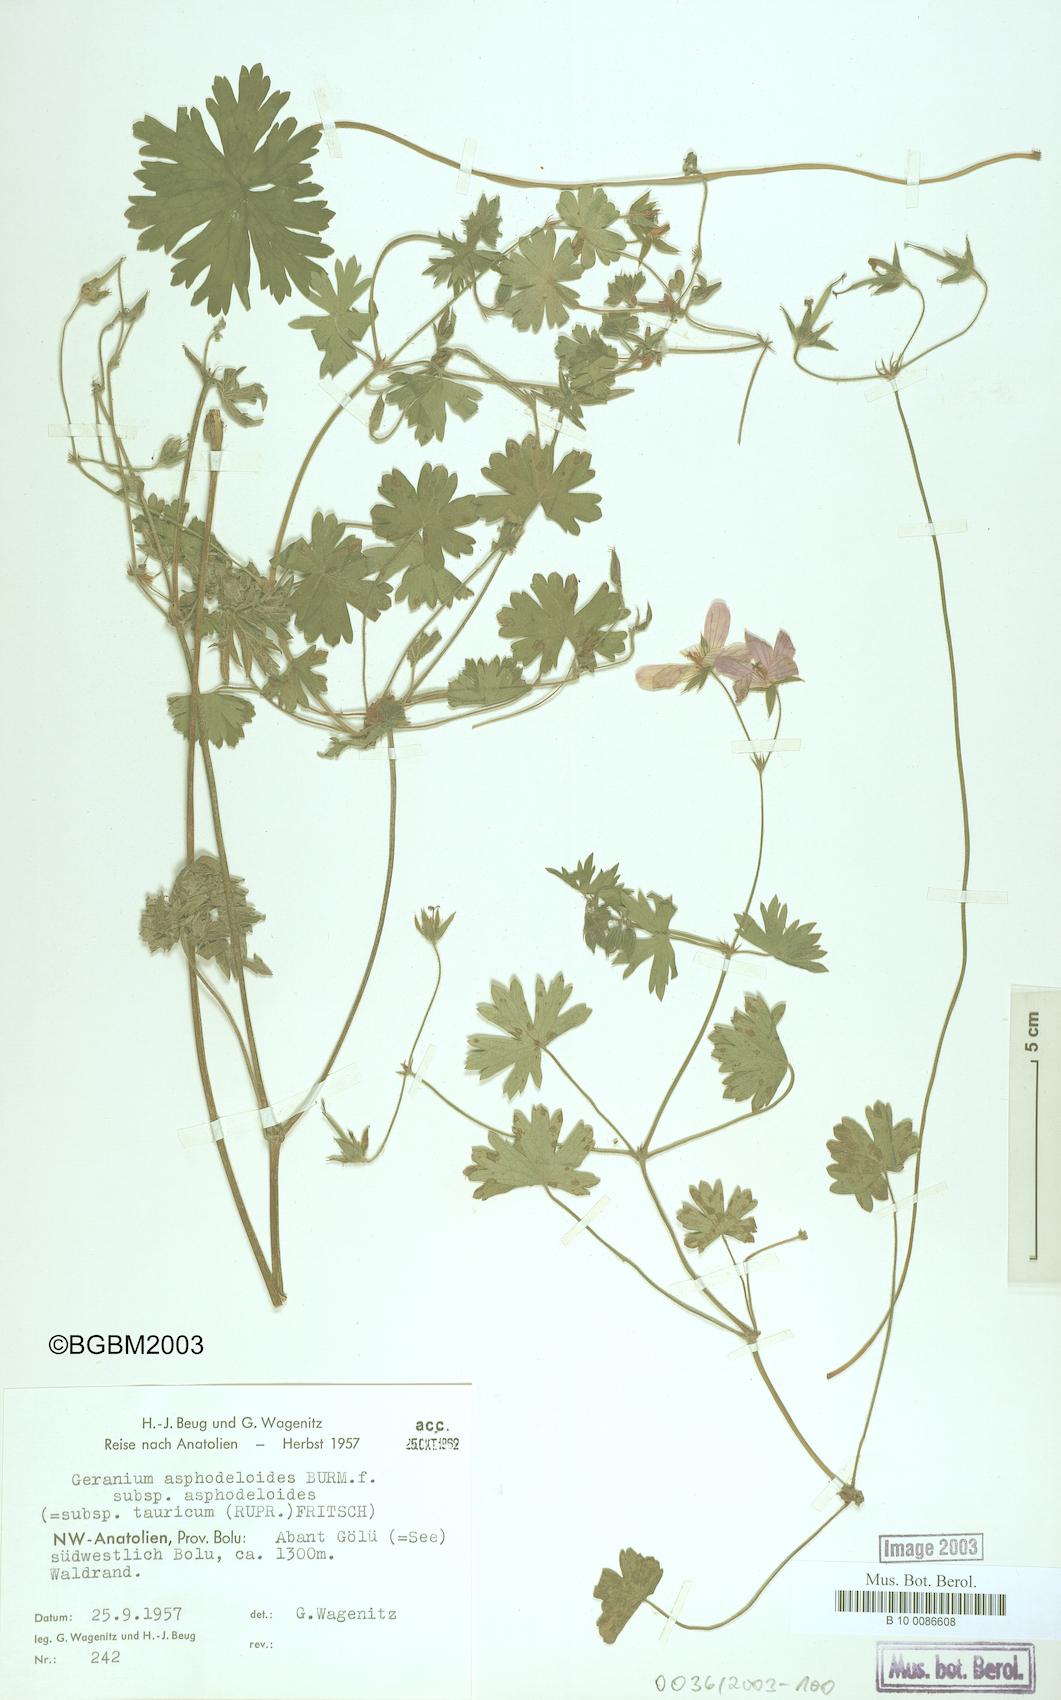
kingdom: Plantae
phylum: Tracheophyta
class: Magnoliopsida
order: Geraniales
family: Geraniaceae
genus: Geranium
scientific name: Geranium asphodeloides
